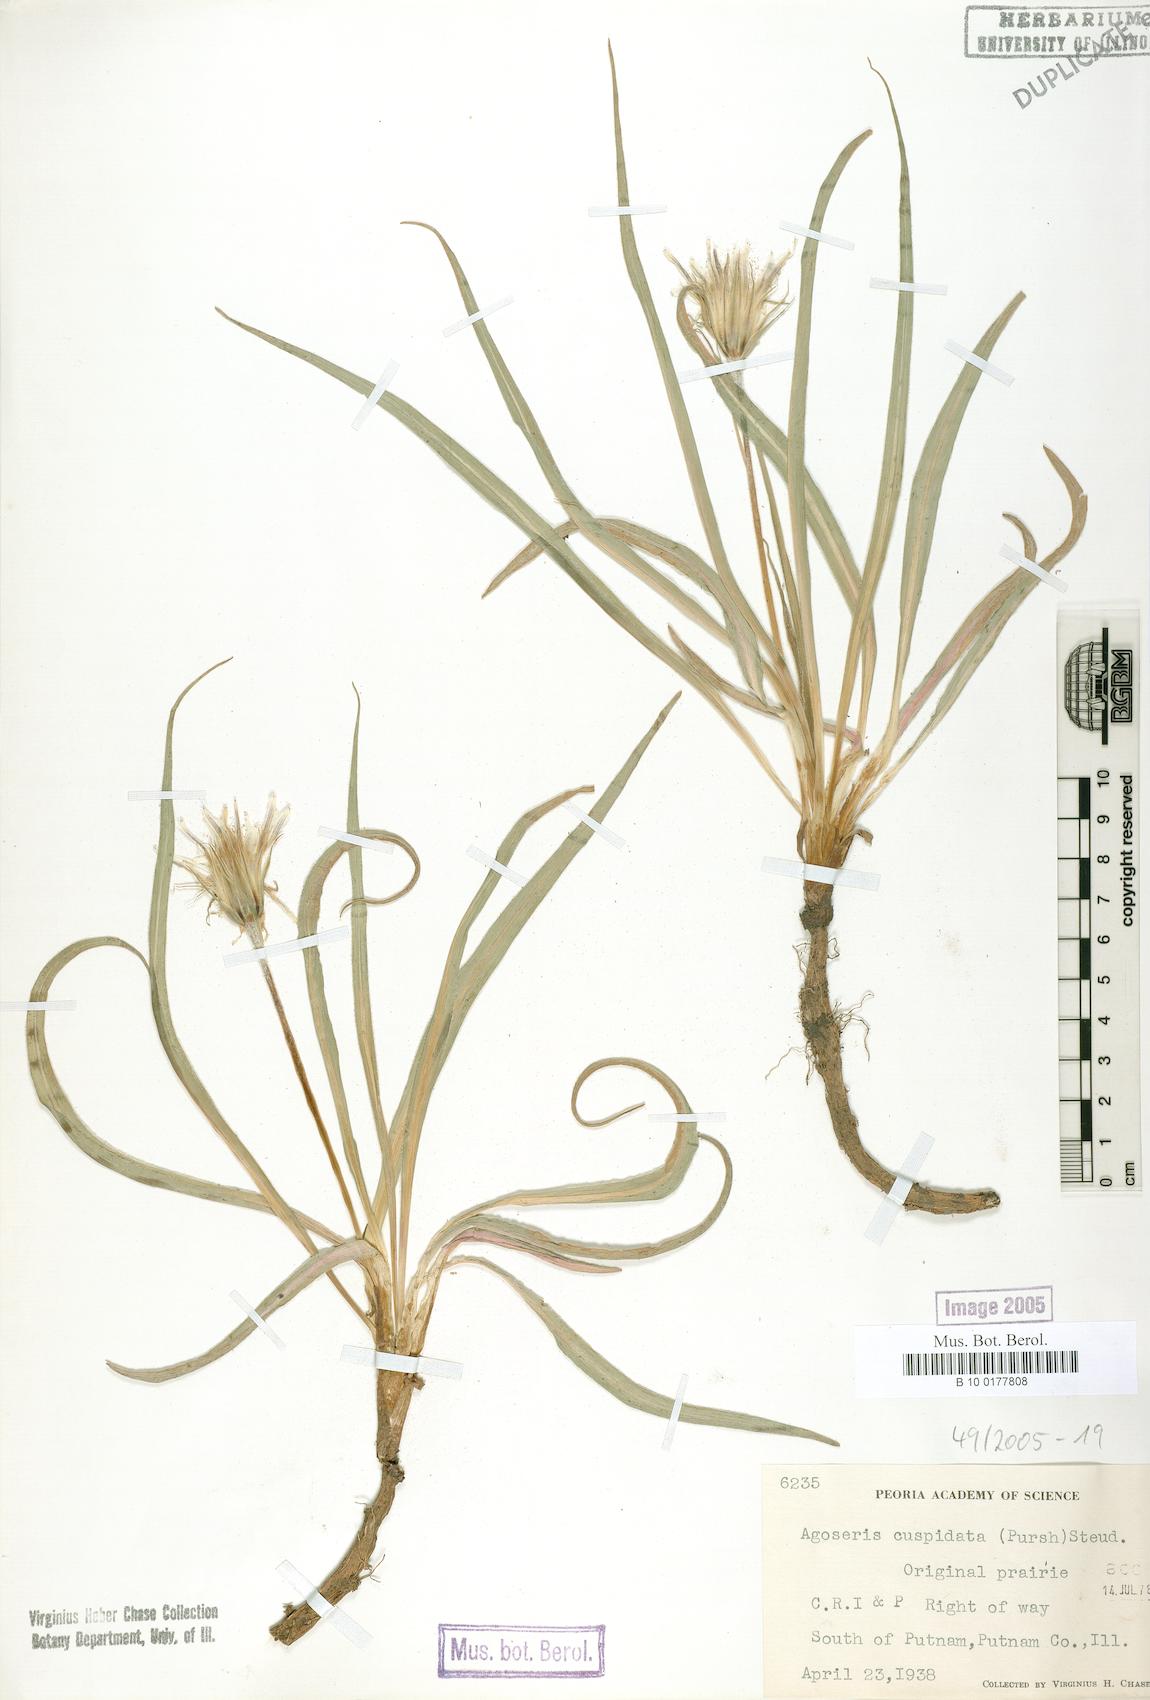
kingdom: Plantae
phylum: Tracheophyta
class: Magnoliopsida
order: Asterales
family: Asteraceae
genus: Microseris
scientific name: Microseris cuspidata
